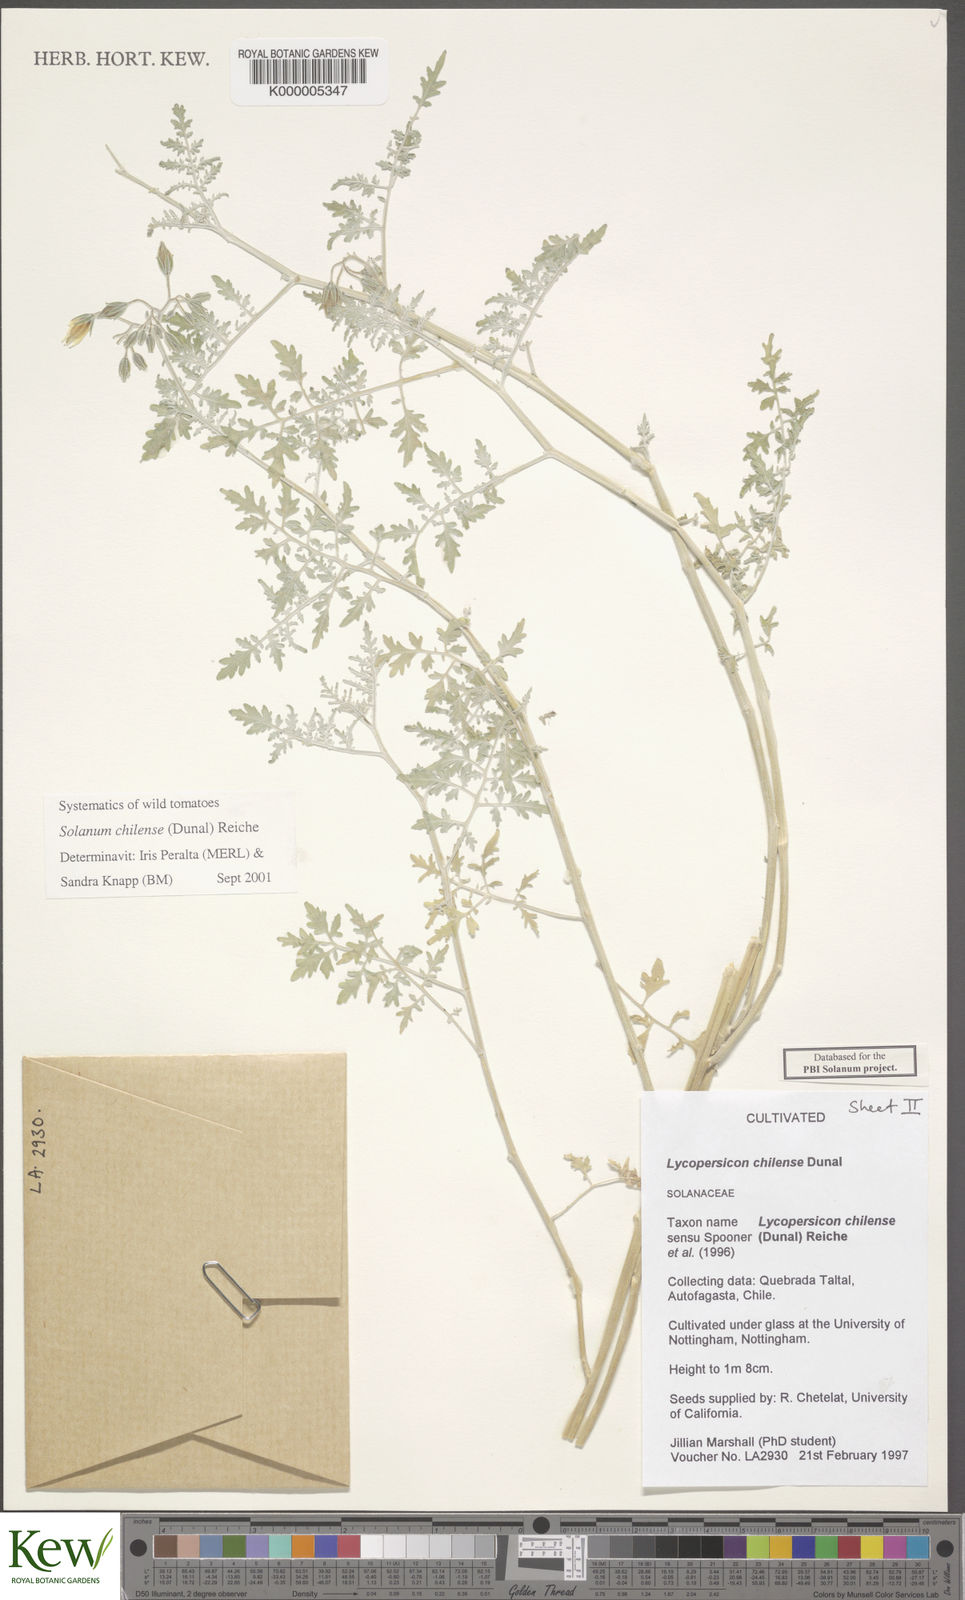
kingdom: Plantae
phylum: Tracheophyta
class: Magnoliopsida
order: Solanales
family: Solanaceae
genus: Solanum
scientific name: Solanum chilense
